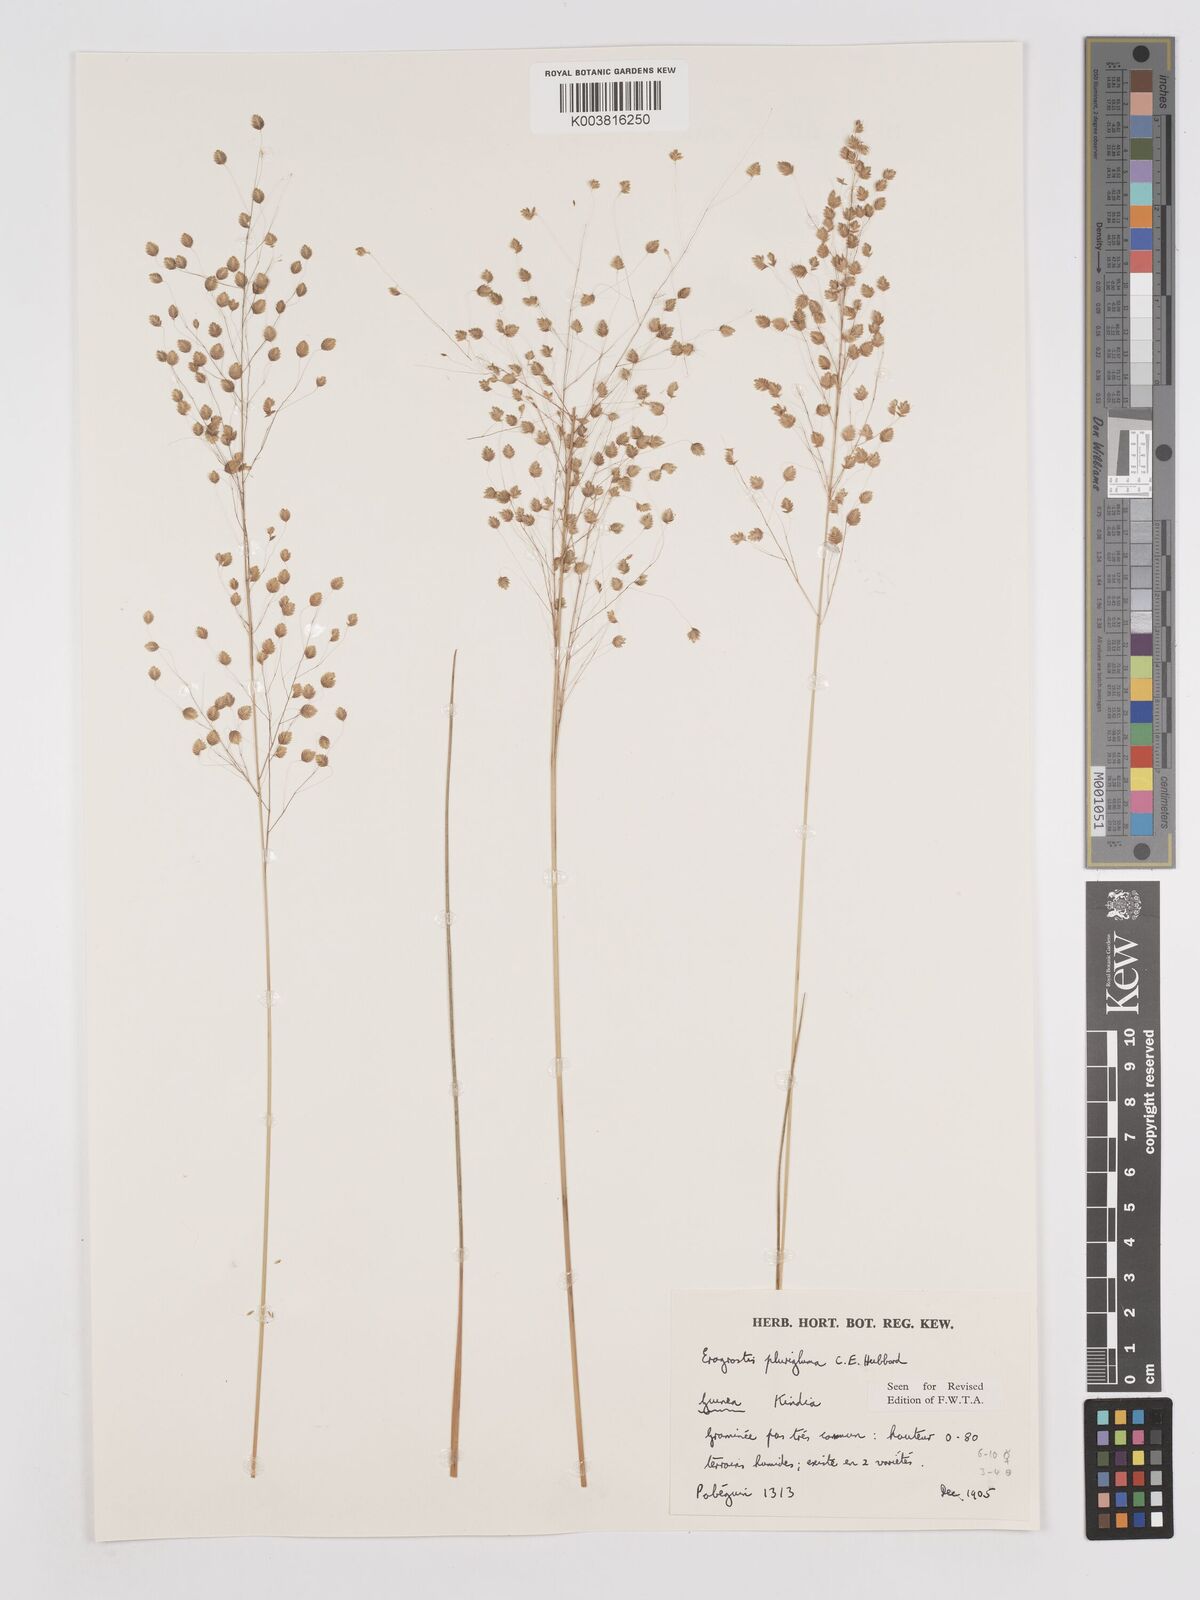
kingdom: Plantae
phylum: Tracheophyta
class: Liliopsida
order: Poales
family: Poaceae
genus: Eragrostis
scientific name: Eragrostis plurigluma
